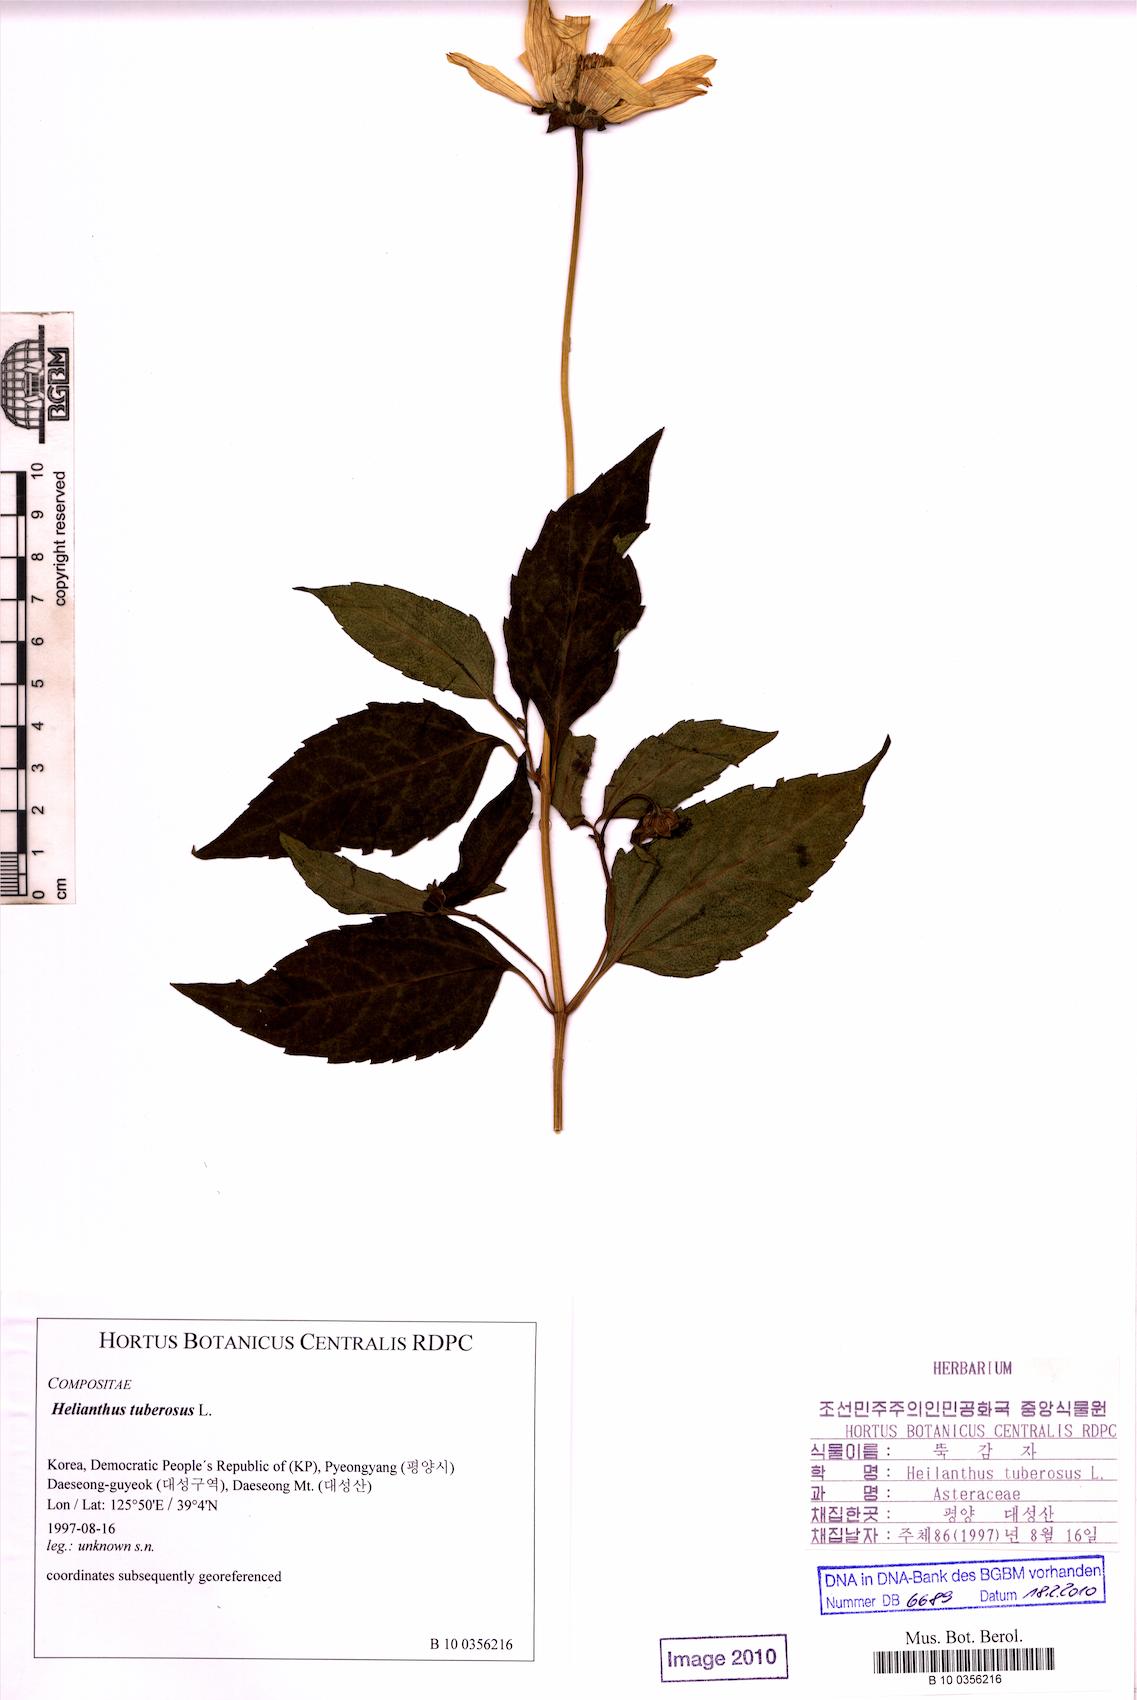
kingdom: Plantae
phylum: Tracheophyta
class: Magnoliopsida
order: Asterales
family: Asteraceae
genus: Heliopsis
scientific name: Heliopsis helianthoides
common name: False sunflower
